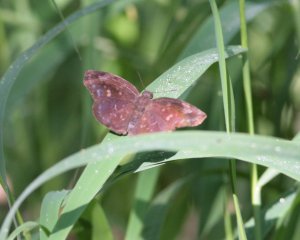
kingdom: Animalia
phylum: Arthropoda
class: Insecta
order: Lepidoptera
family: Hesperiidae
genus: Achlyodes
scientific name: Achlyodes thraso
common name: Sickle-winged Skipper
